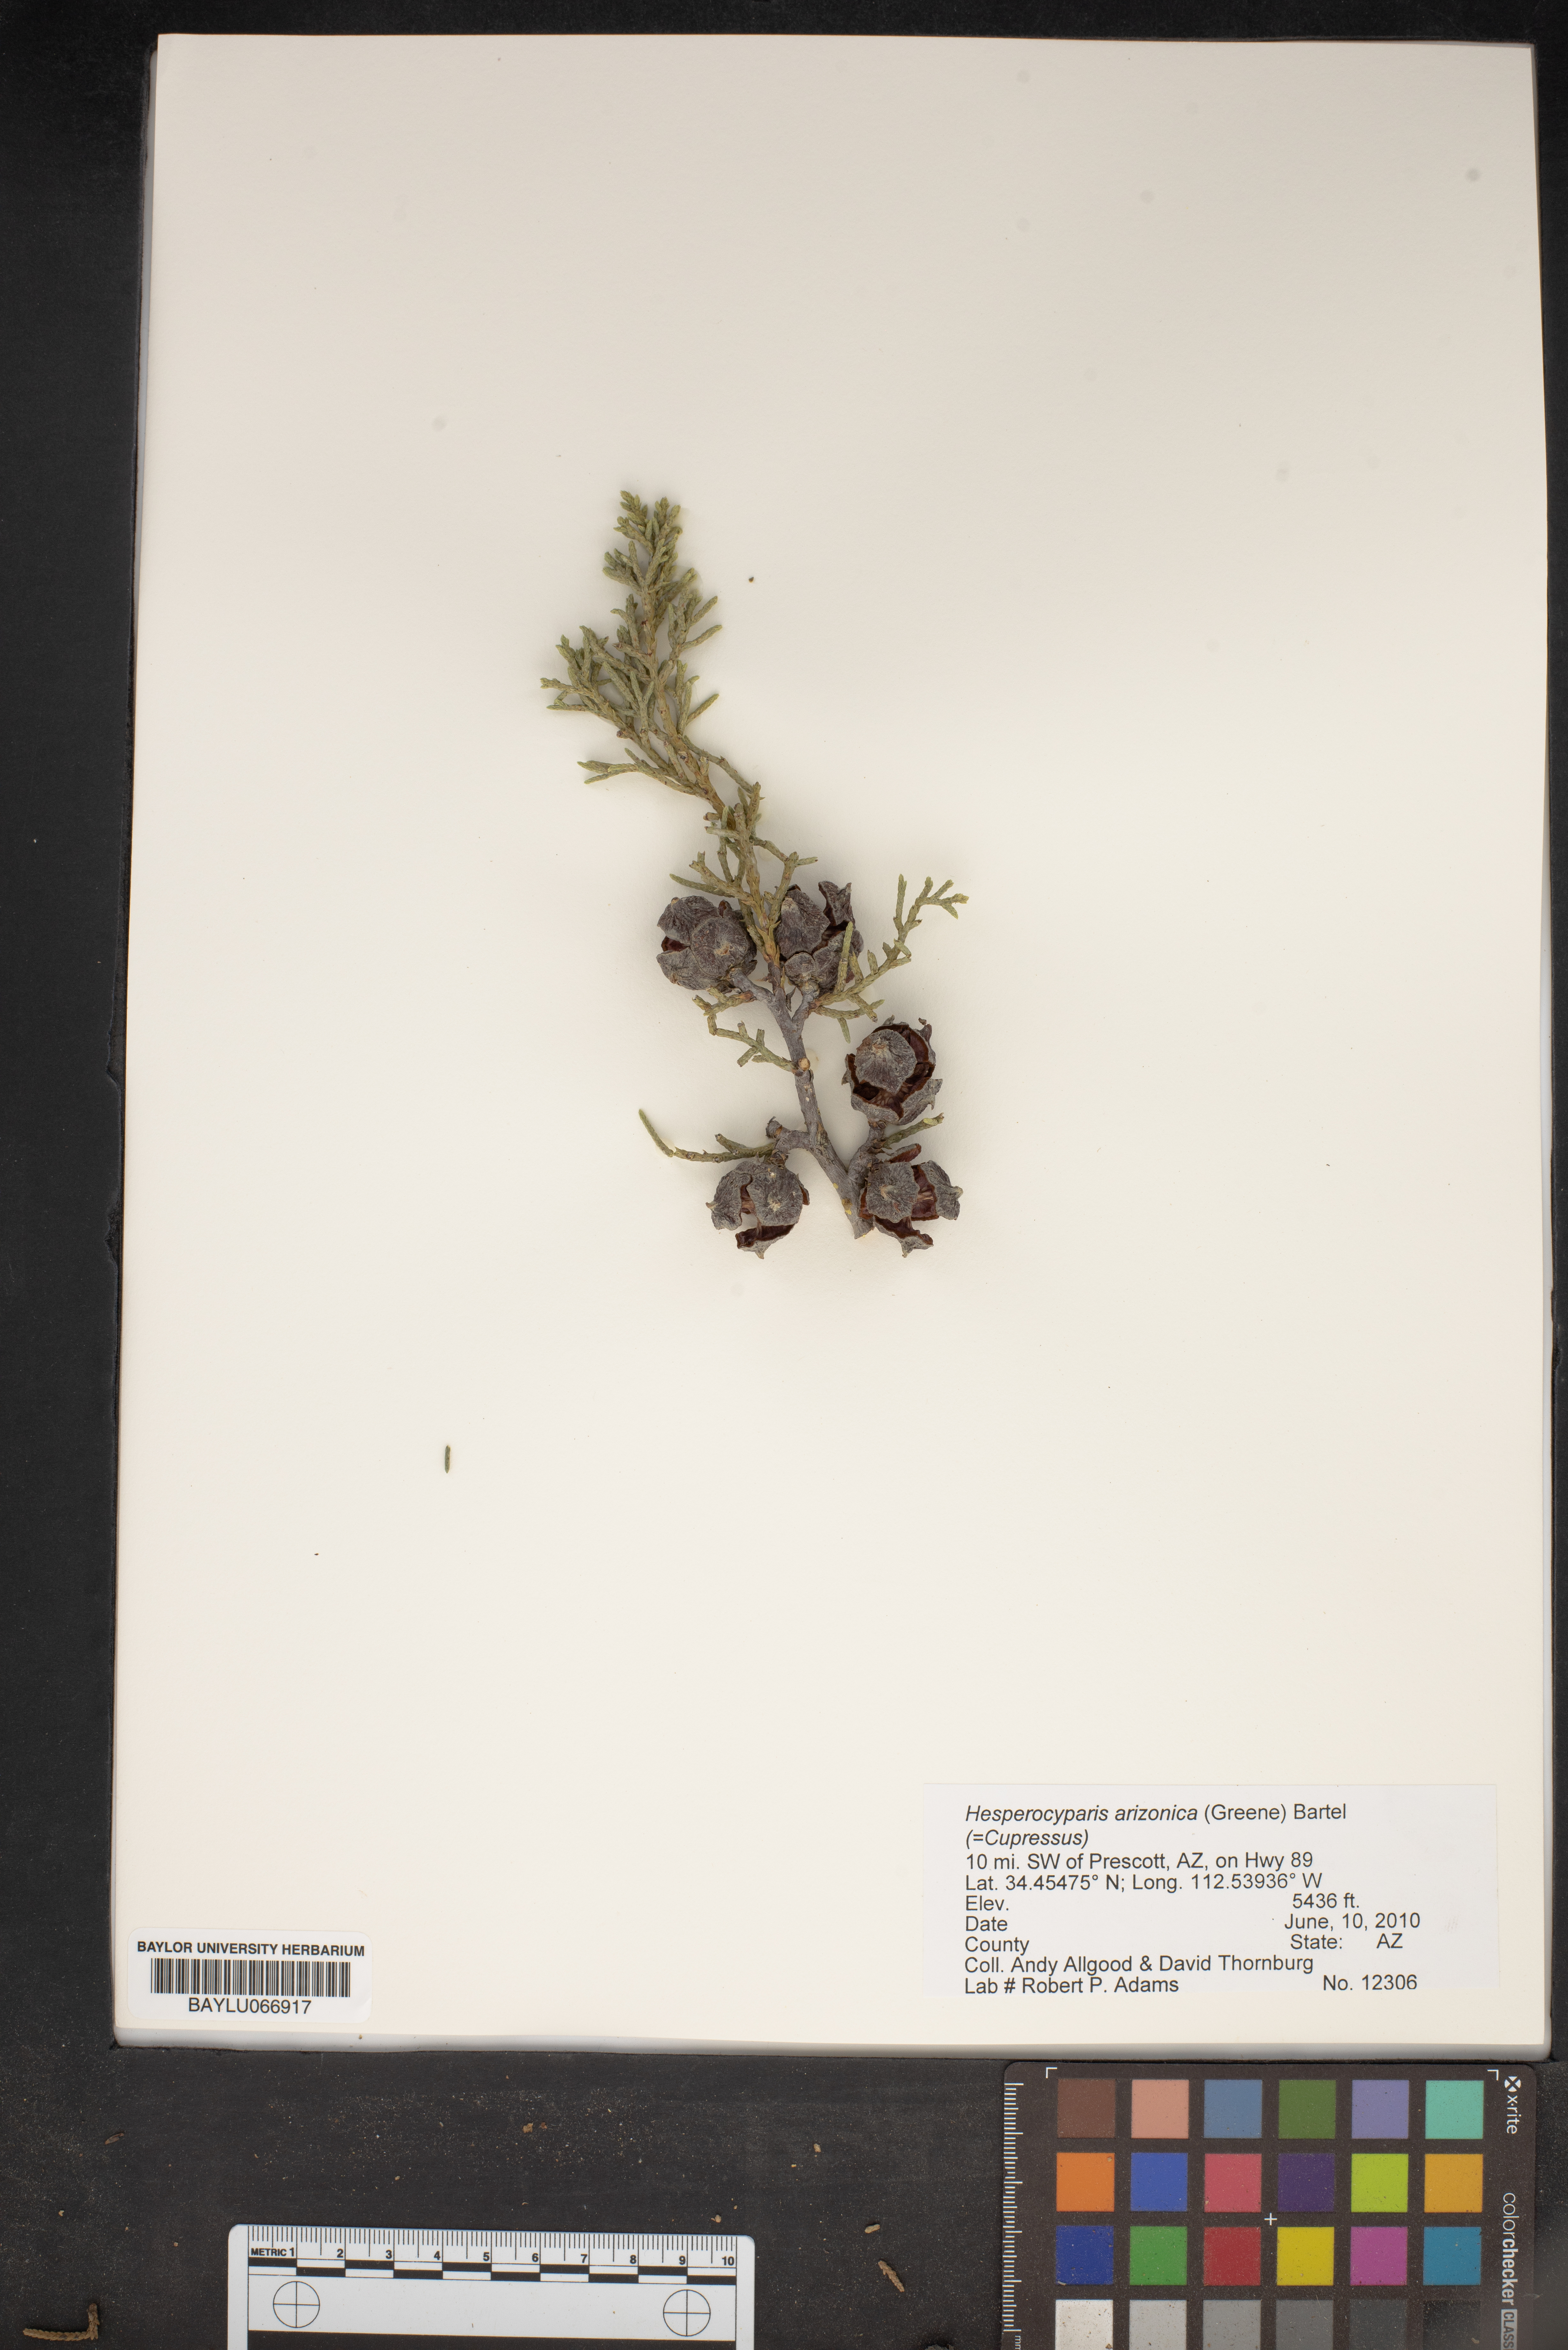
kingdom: Plantae
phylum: Tracheophyta
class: Pinopsida
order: Pinales
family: Cupressaceae
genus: Cupressus
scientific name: Cupressus arizonica
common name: Arizona cypress
